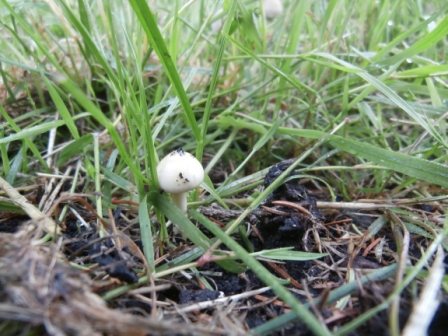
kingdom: Fungi
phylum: Basidiomycota
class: Agaricomycetes
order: Agaricales
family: Strophariaceae
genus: Protostropharia
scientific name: Protostropharia semiglobata
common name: halvkugleformet bredblad
